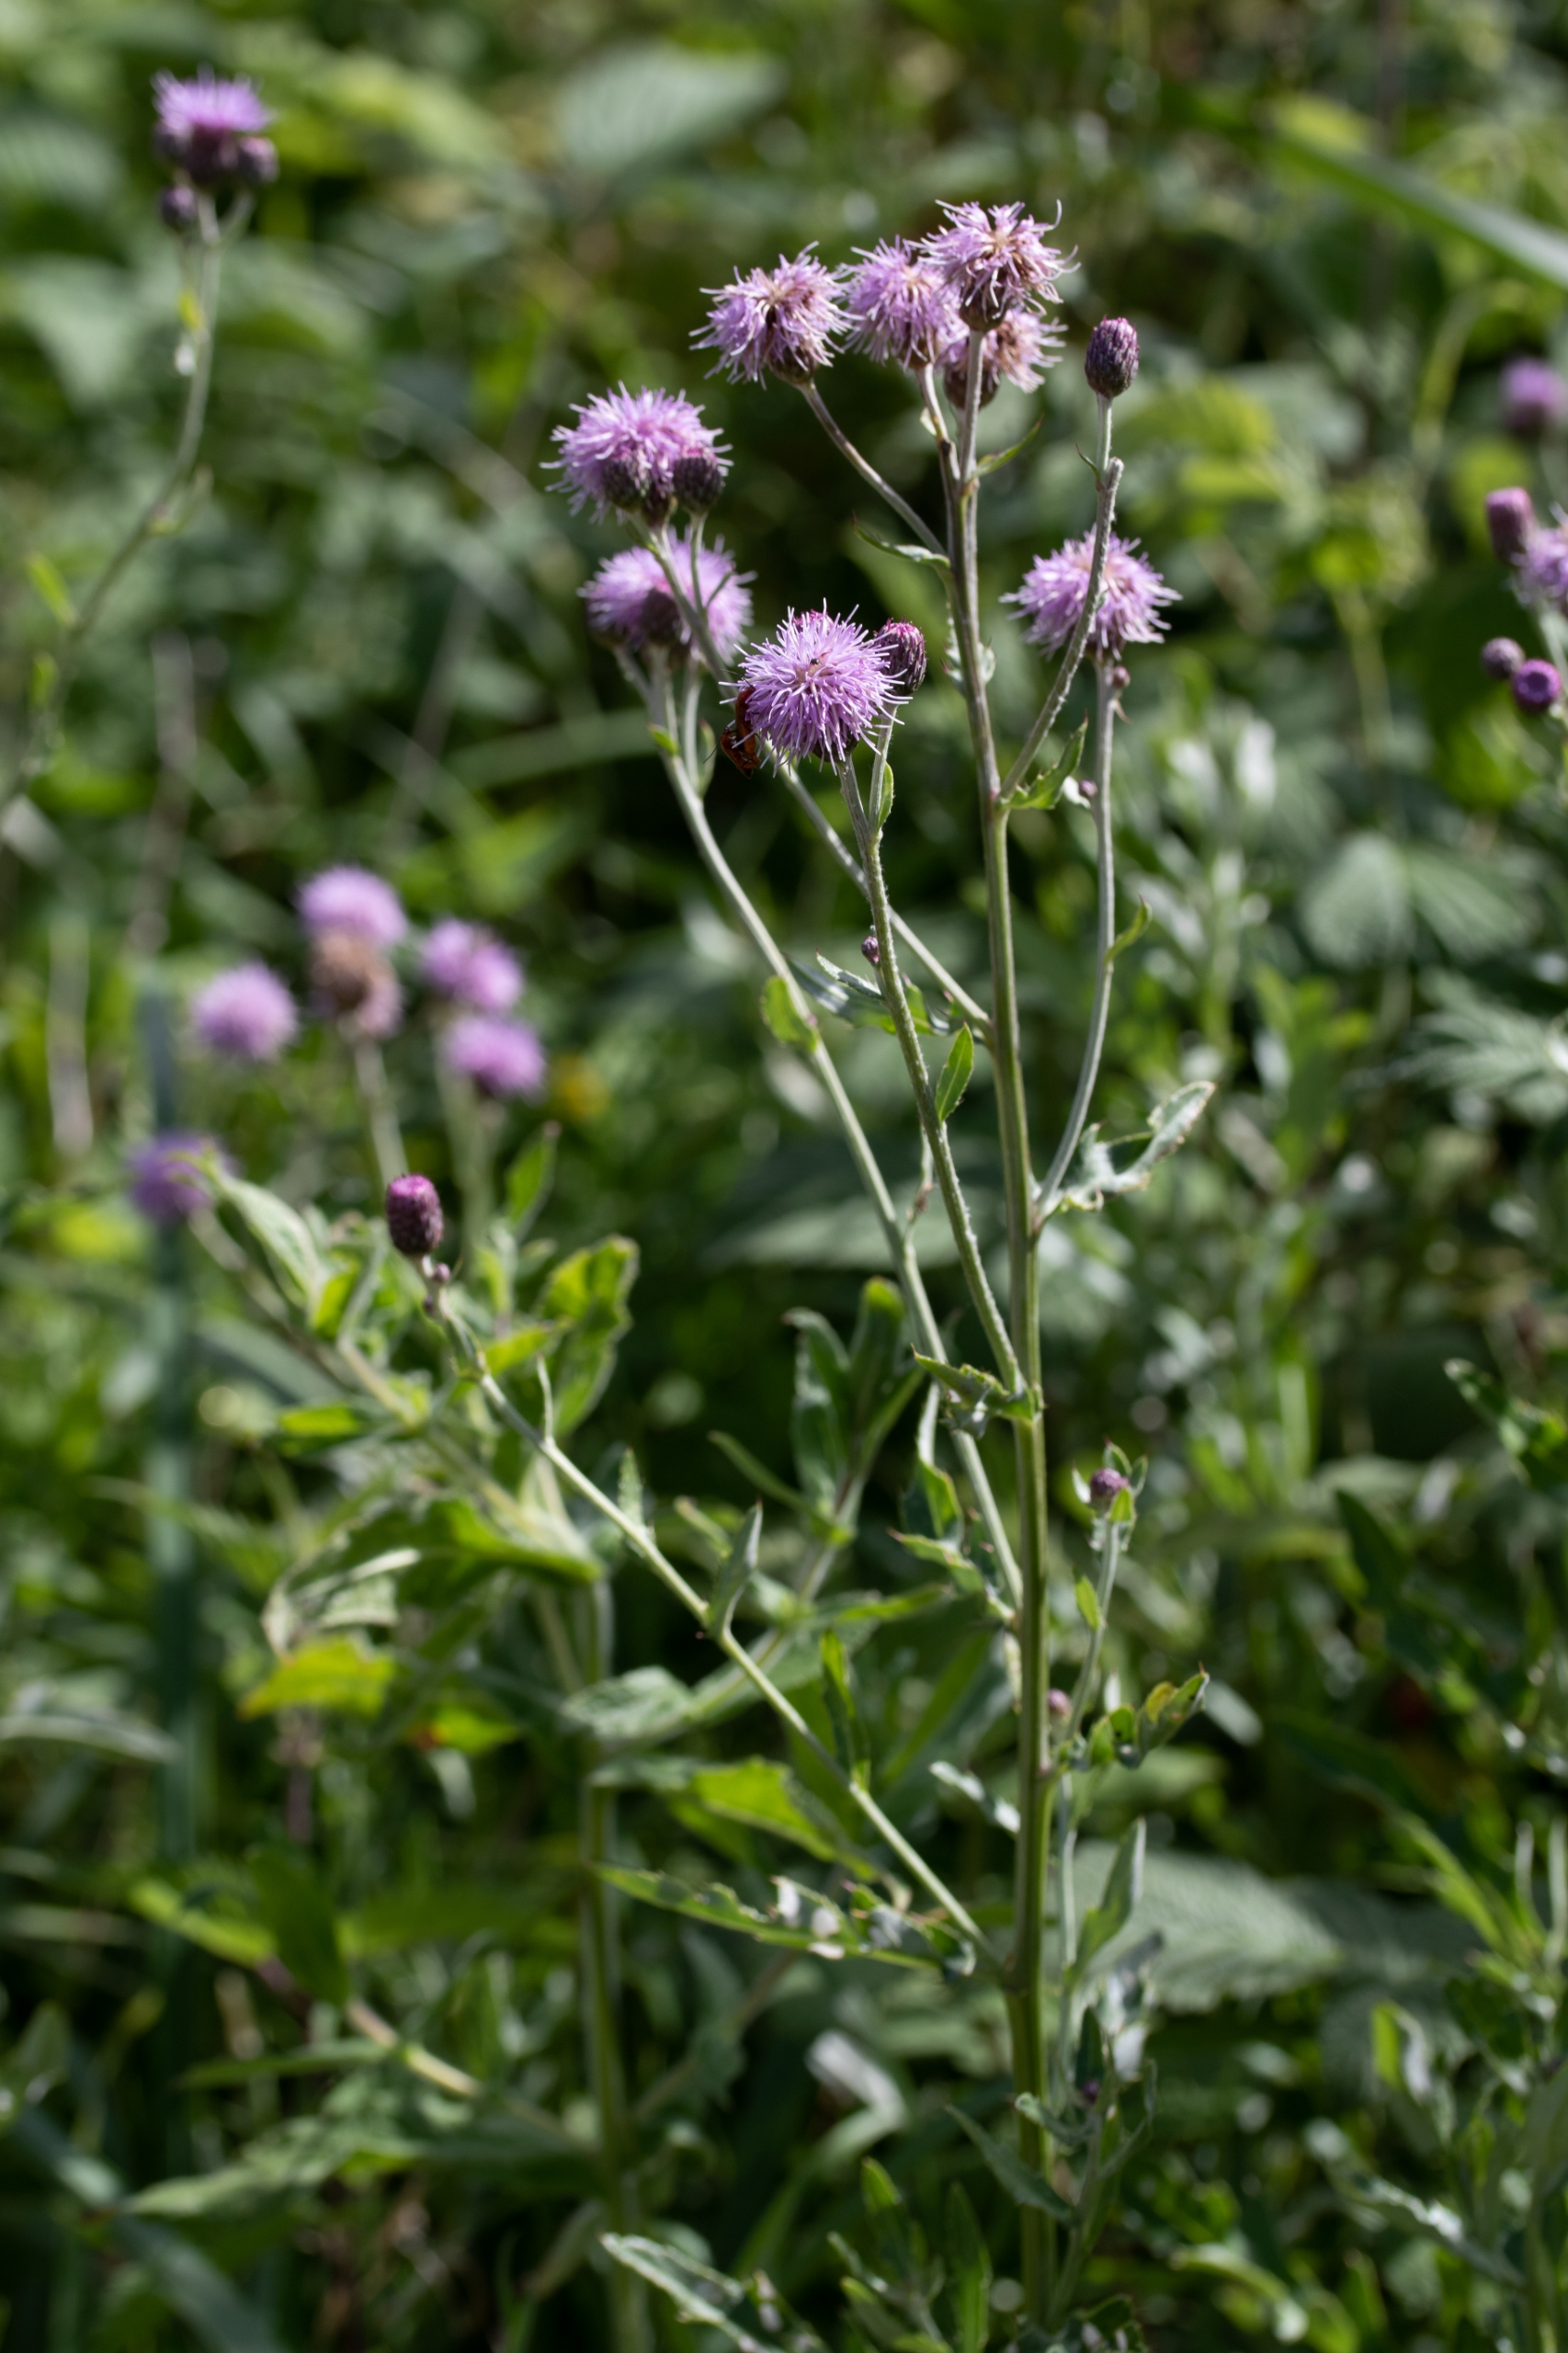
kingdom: Plantae
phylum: Tracheophyta
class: Magnoliopsida
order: Asterales
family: Asteraceae
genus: Cirsium
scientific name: Cirsium arvense
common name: Ager-tidsel
